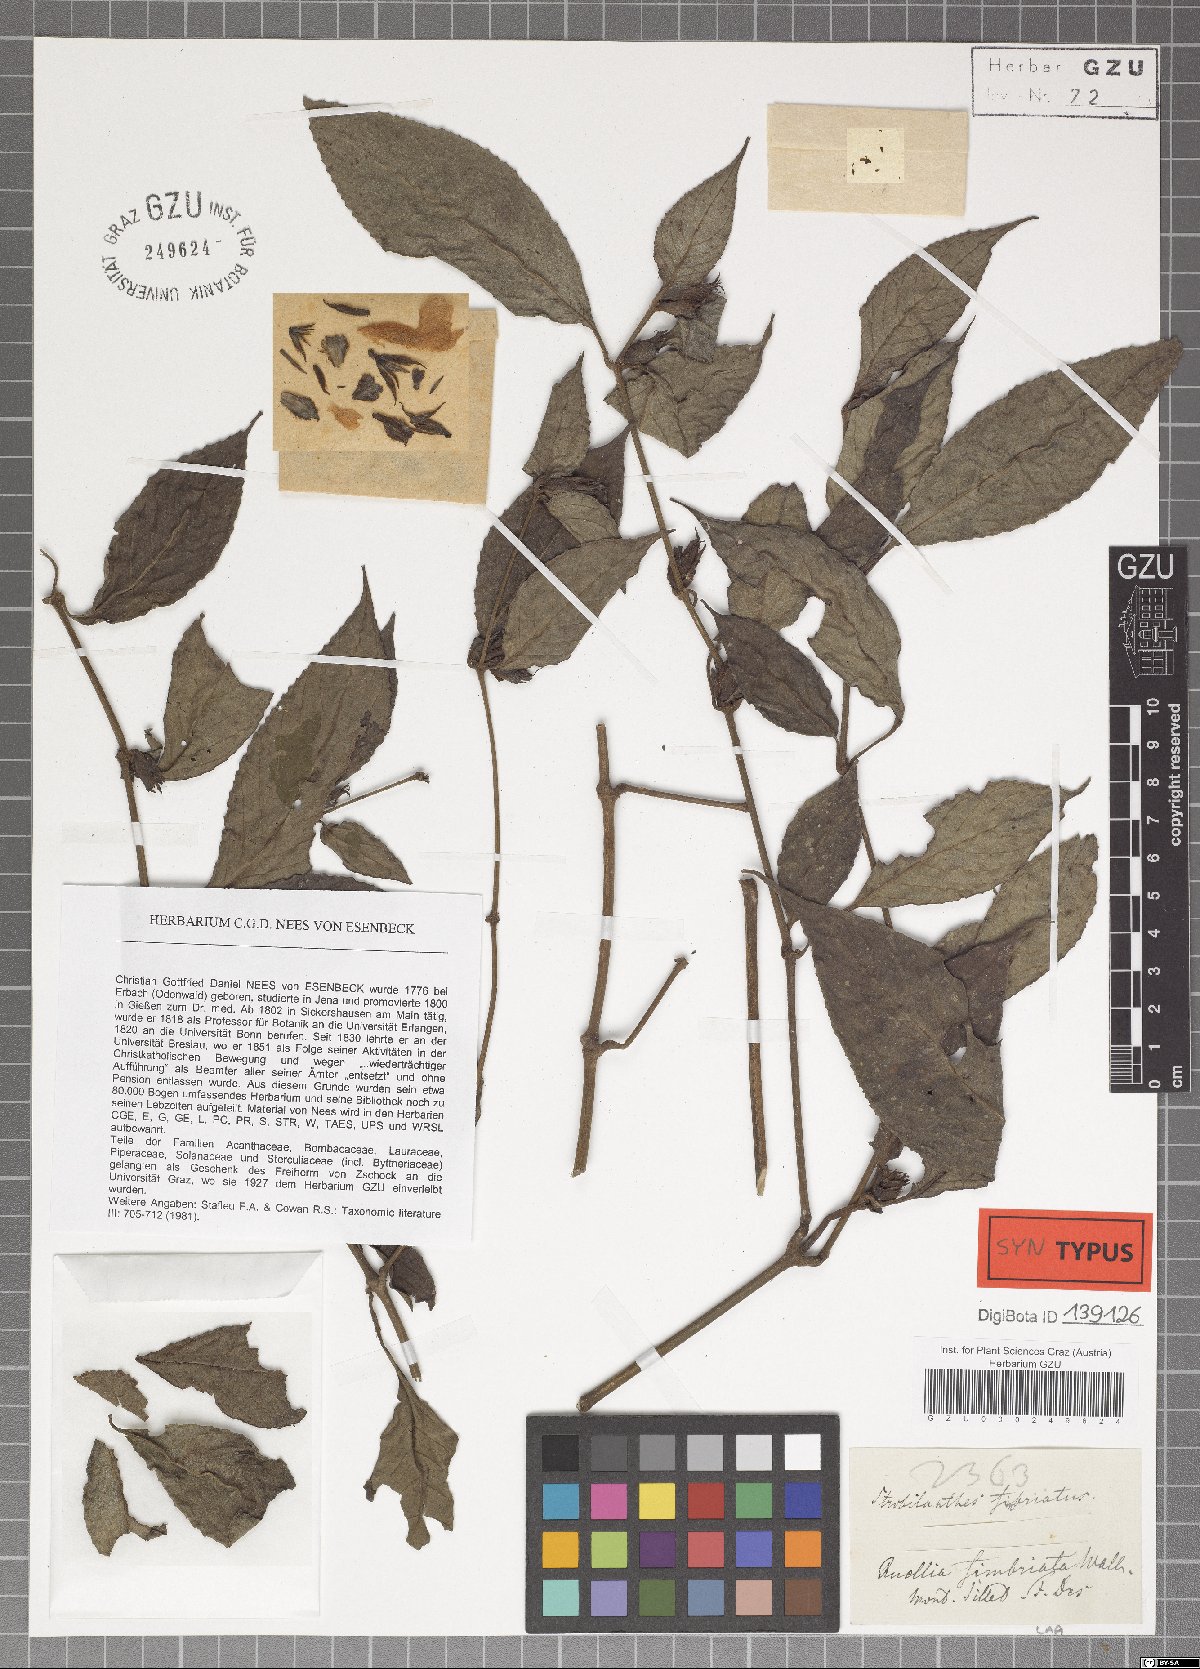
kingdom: Plantae
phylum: Tracheophyta
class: Magnoliopsida
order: Lamiales
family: Acanthaceae
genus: Strobilanthes
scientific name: Strobilanthes fimbriata
